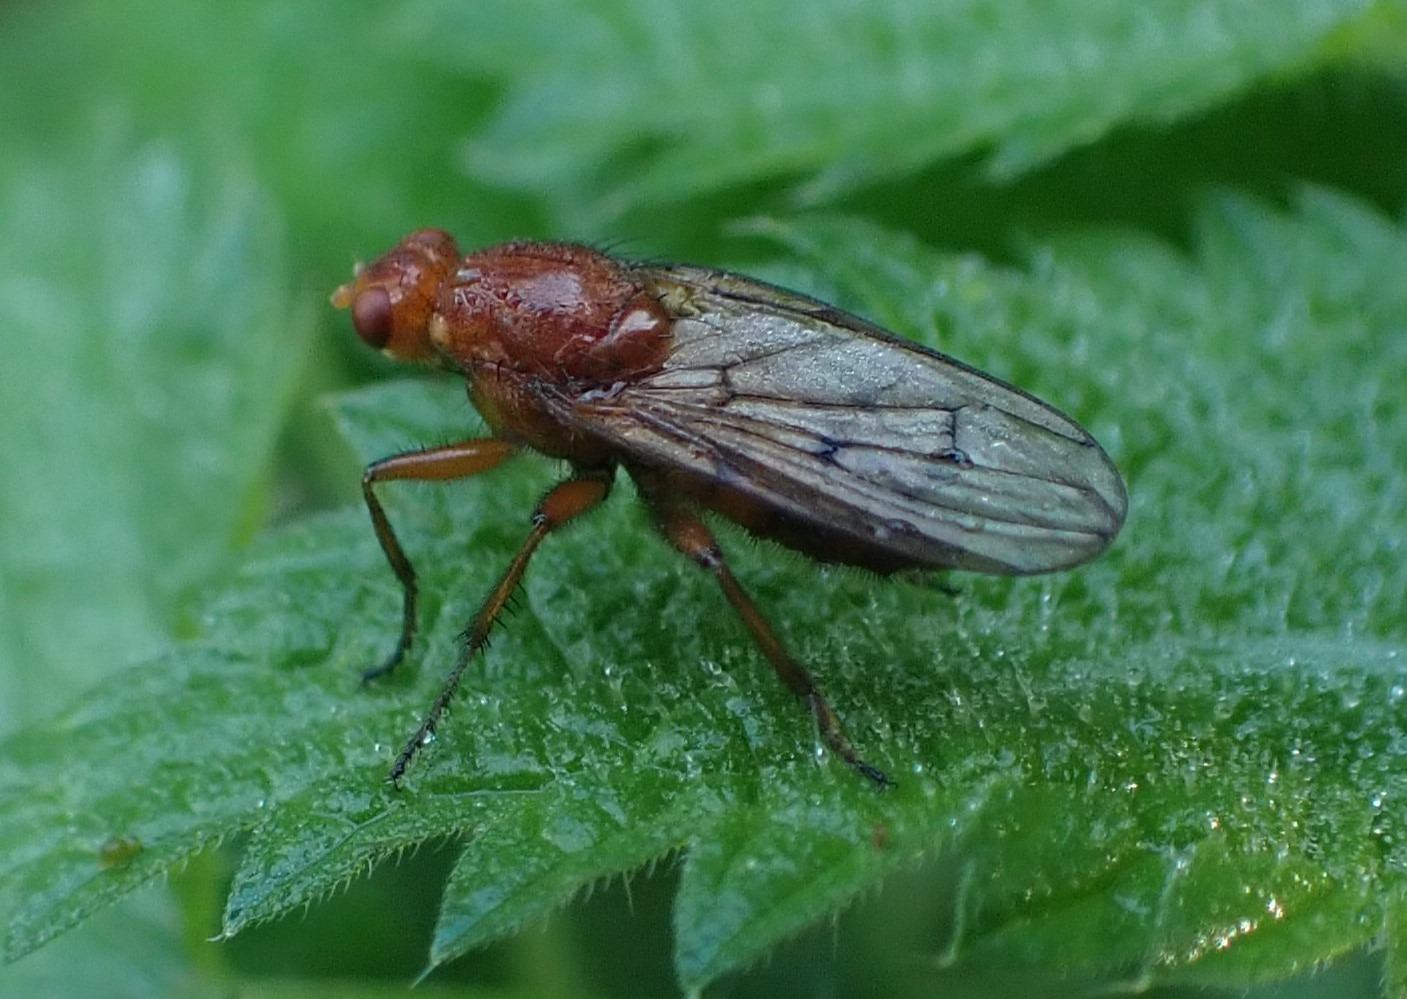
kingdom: Animalia
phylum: Arthropoda
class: Insecta
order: Diptera
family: Dryomyzidae
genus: Dryomyza
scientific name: Dryomyza anilis
